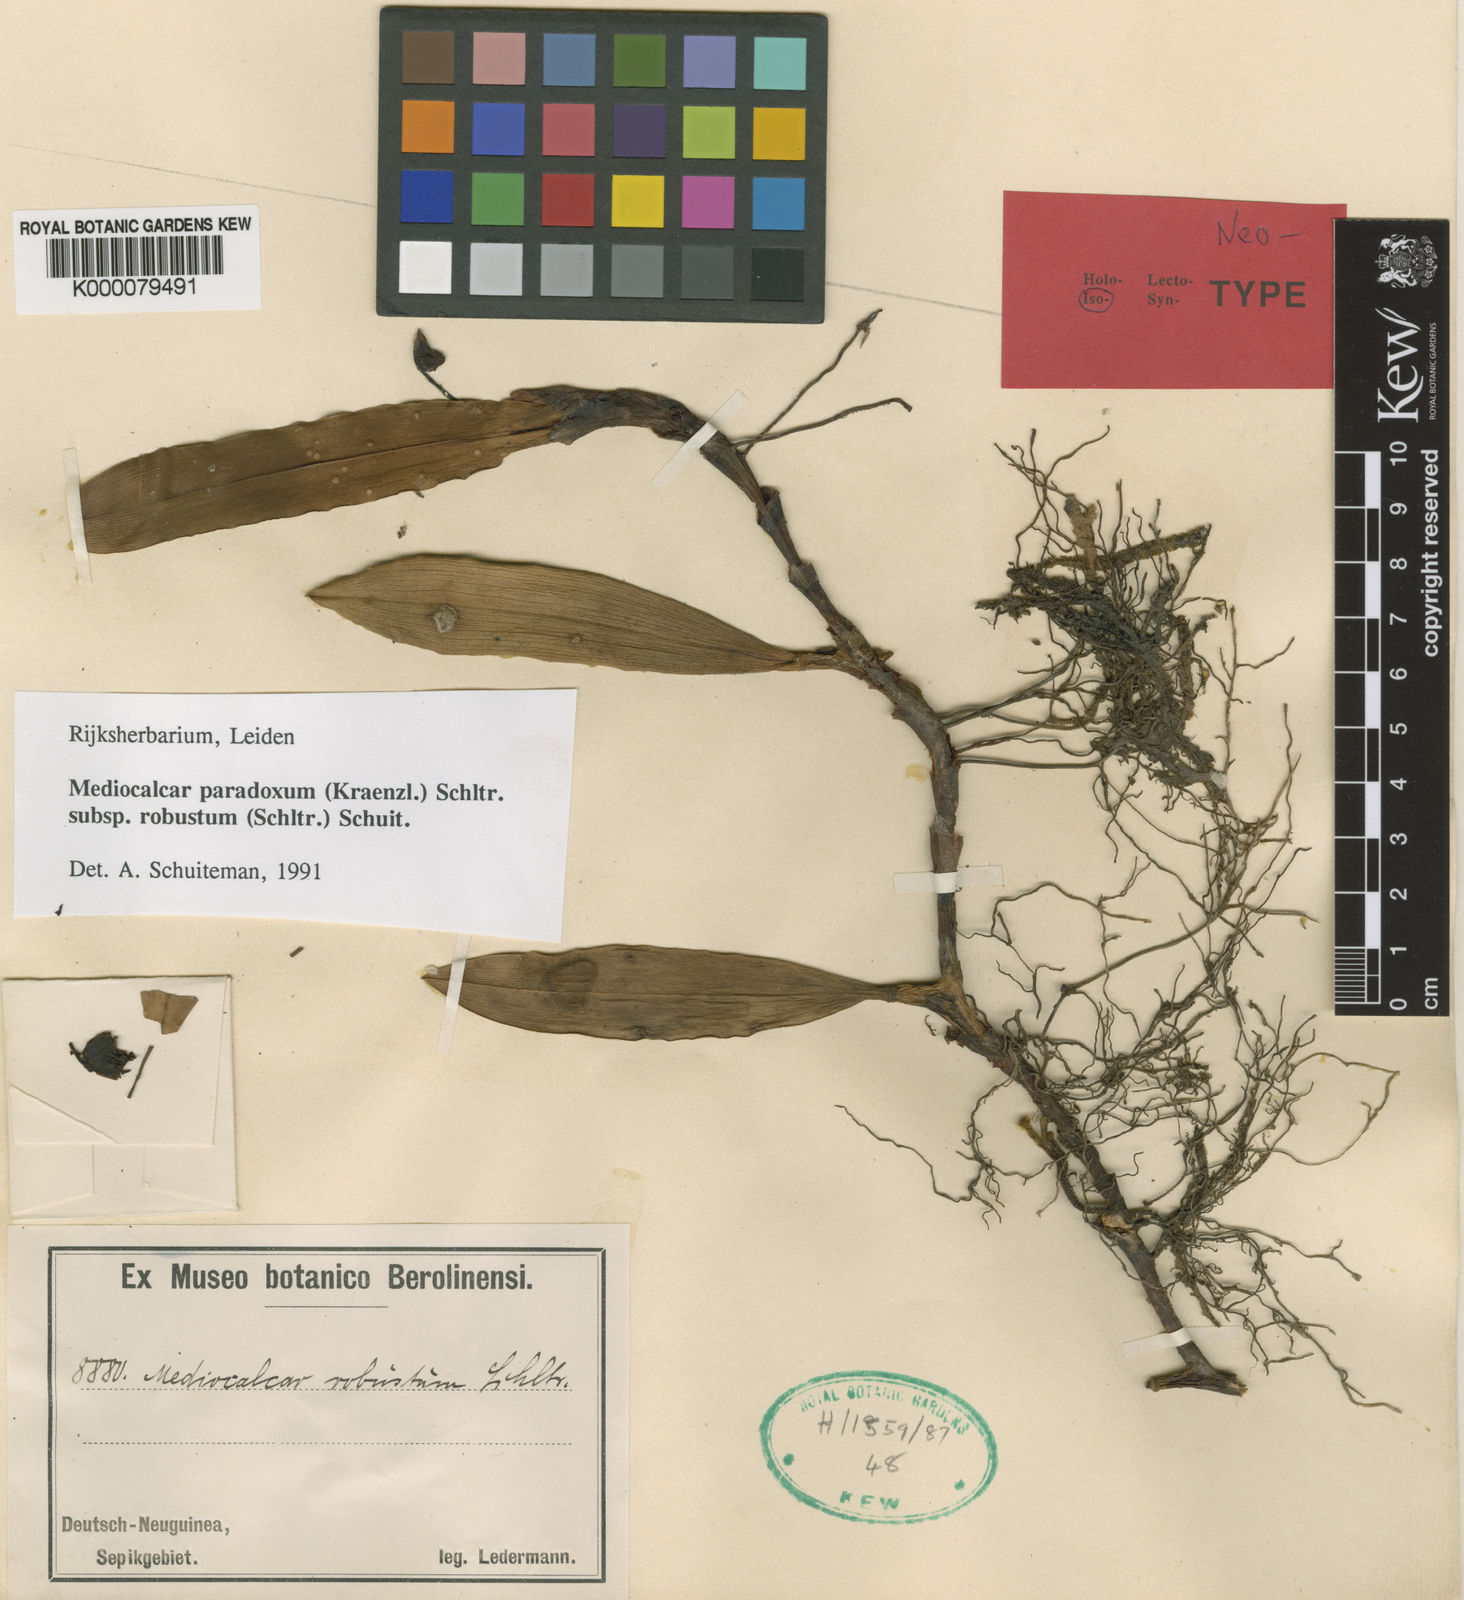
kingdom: Plantae
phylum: Tracheophyta
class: Liliopsida
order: Asparagales
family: Orchidaceae
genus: Mediocalcar
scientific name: Mediocalcar paradoxum
